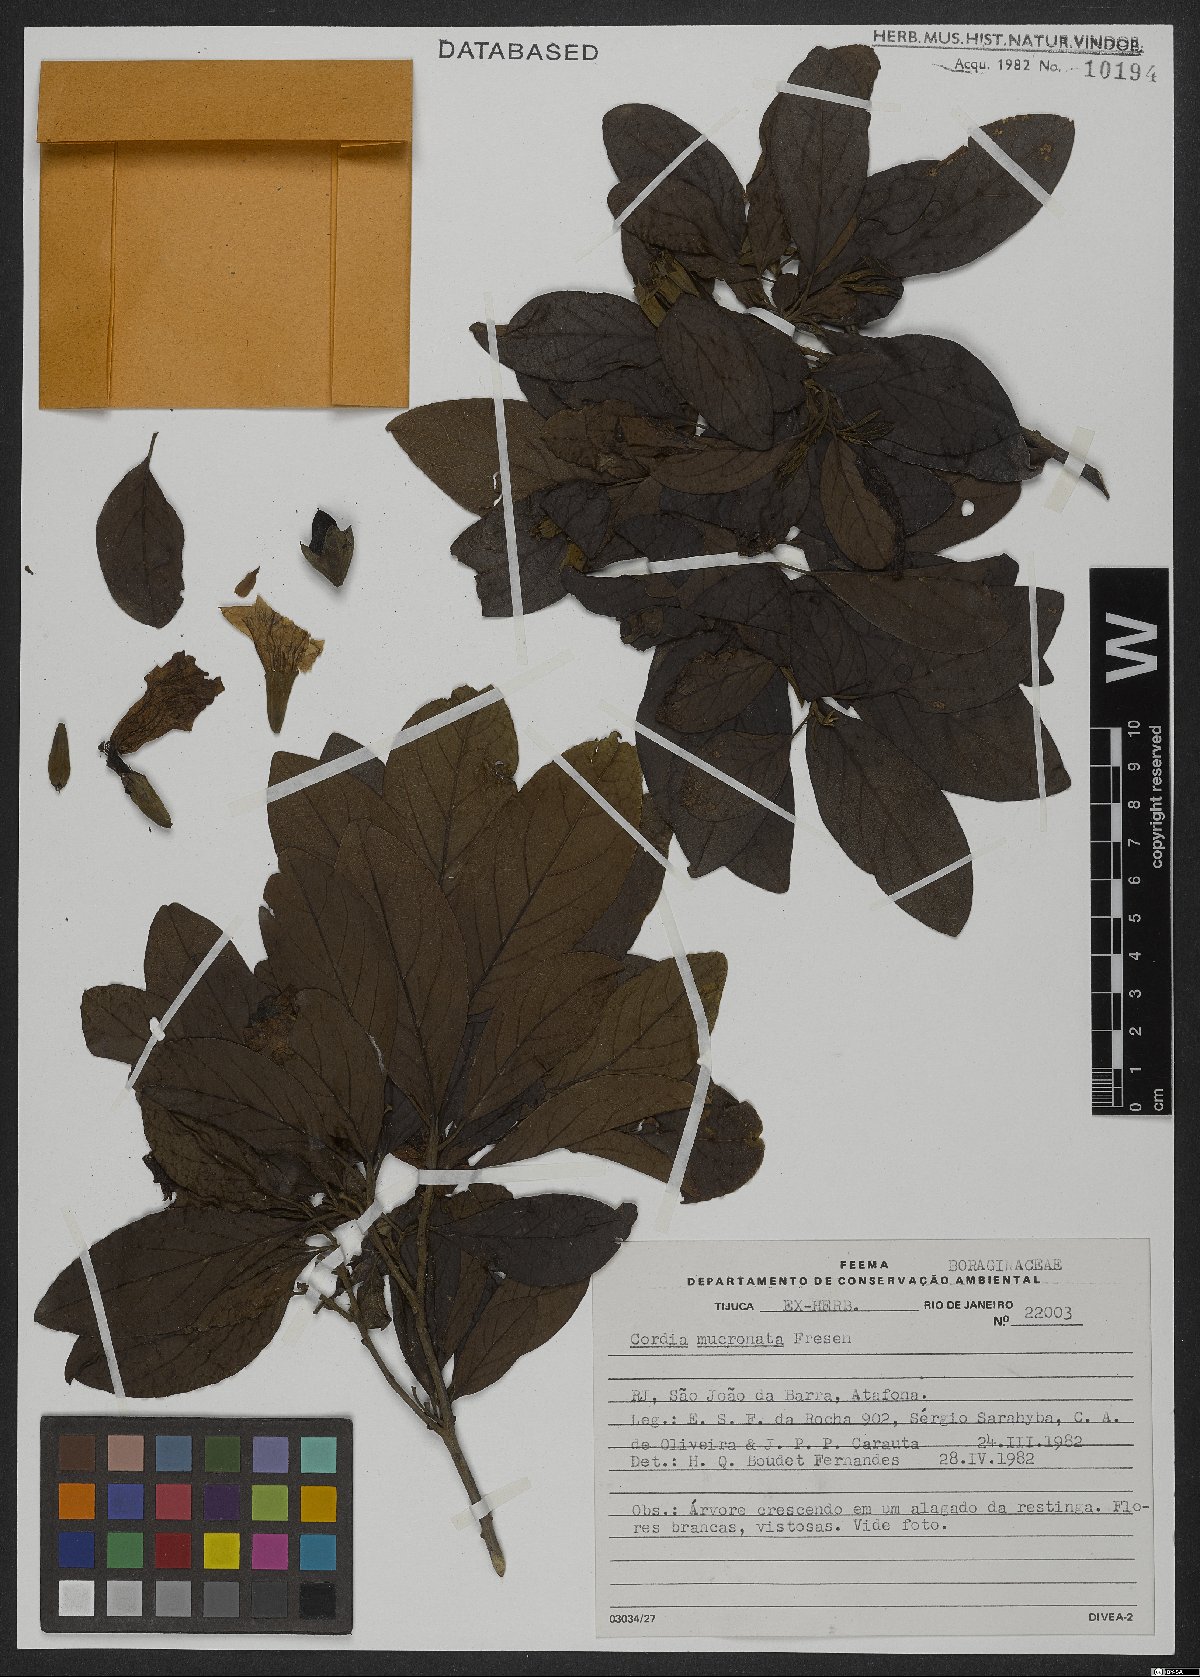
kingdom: Plantae
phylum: Tracheophyta
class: Magnoliopsida
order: Boraginales
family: Cordiaceae
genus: Cordia
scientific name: Cordia aberrans
